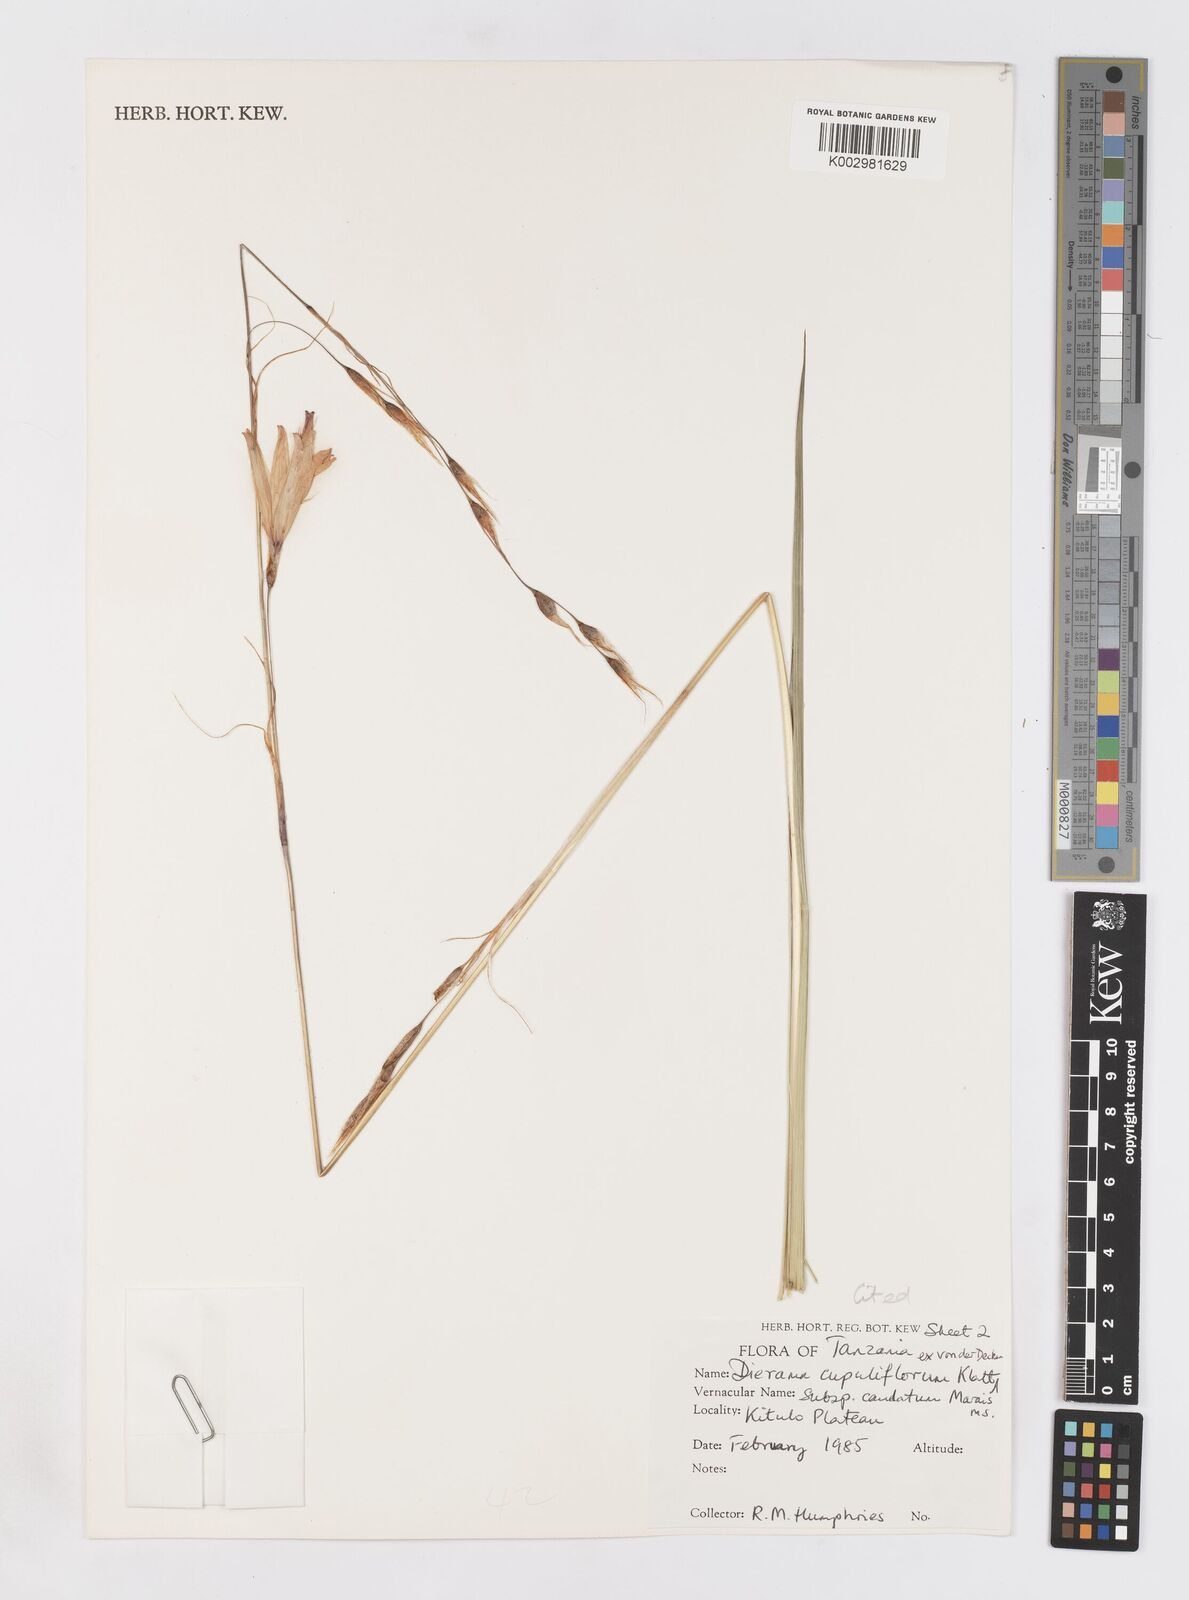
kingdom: Plantae
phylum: Tracheophyta
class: Liliopsida
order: Asparagales
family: Iridaceae
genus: Dierama
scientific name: Dierama cupuliflorum
